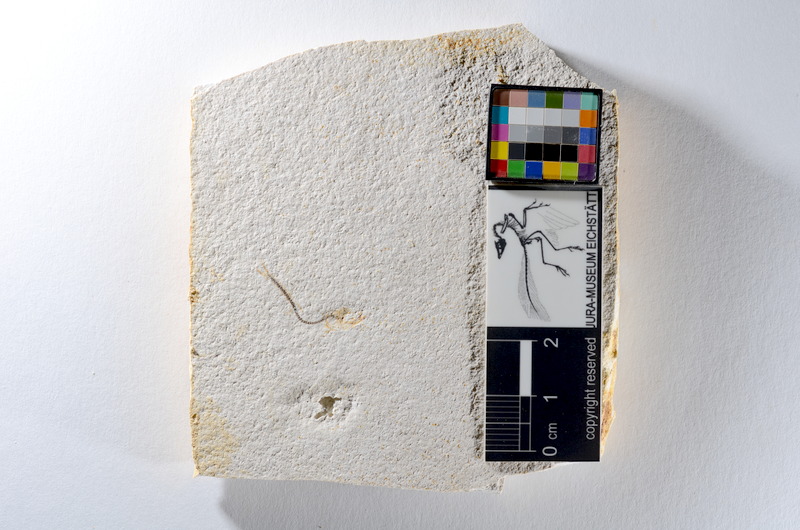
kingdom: Animalia
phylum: Chordata
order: Salmoniformes
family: Orthogonikleithridae
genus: Orthogonikleithrus
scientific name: Orthogonikleithrus hoelli
